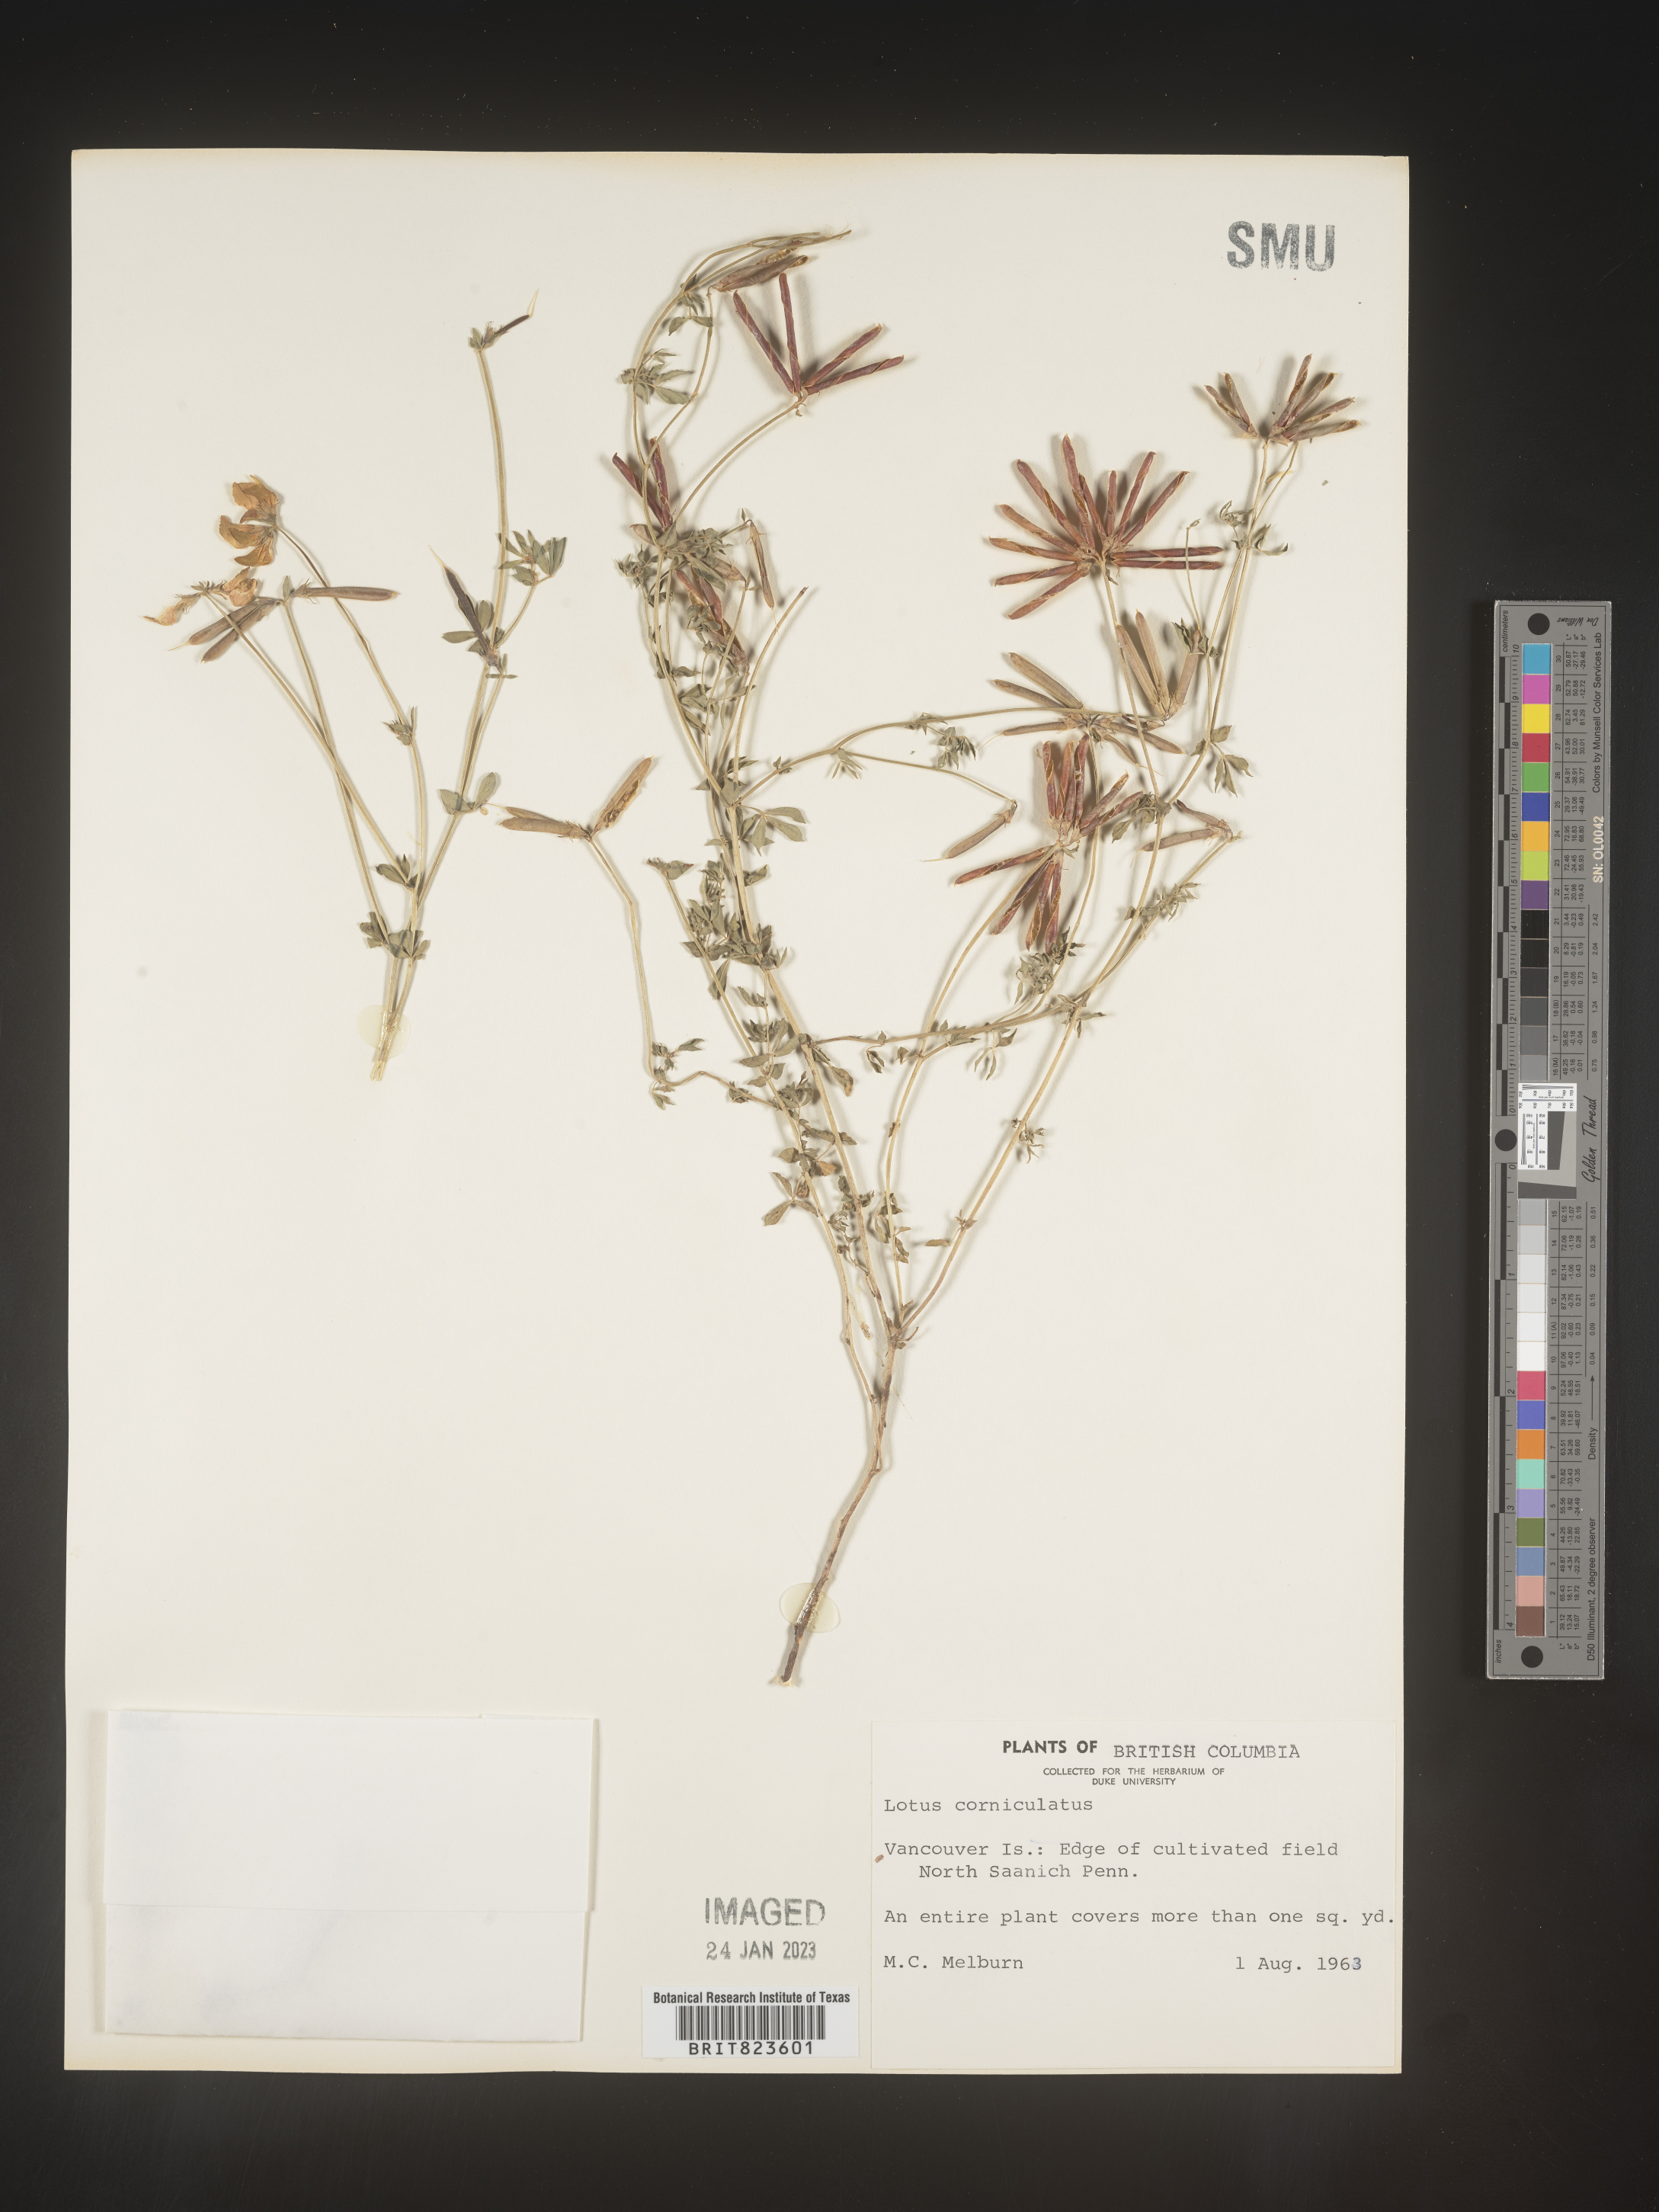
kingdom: Plantae
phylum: Tracheophyta
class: Magnoliopsida
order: Fabales
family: Fabaceae
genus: Lotus
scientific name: Lotus corniculatus
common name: Common bird's-foot-trefoil
